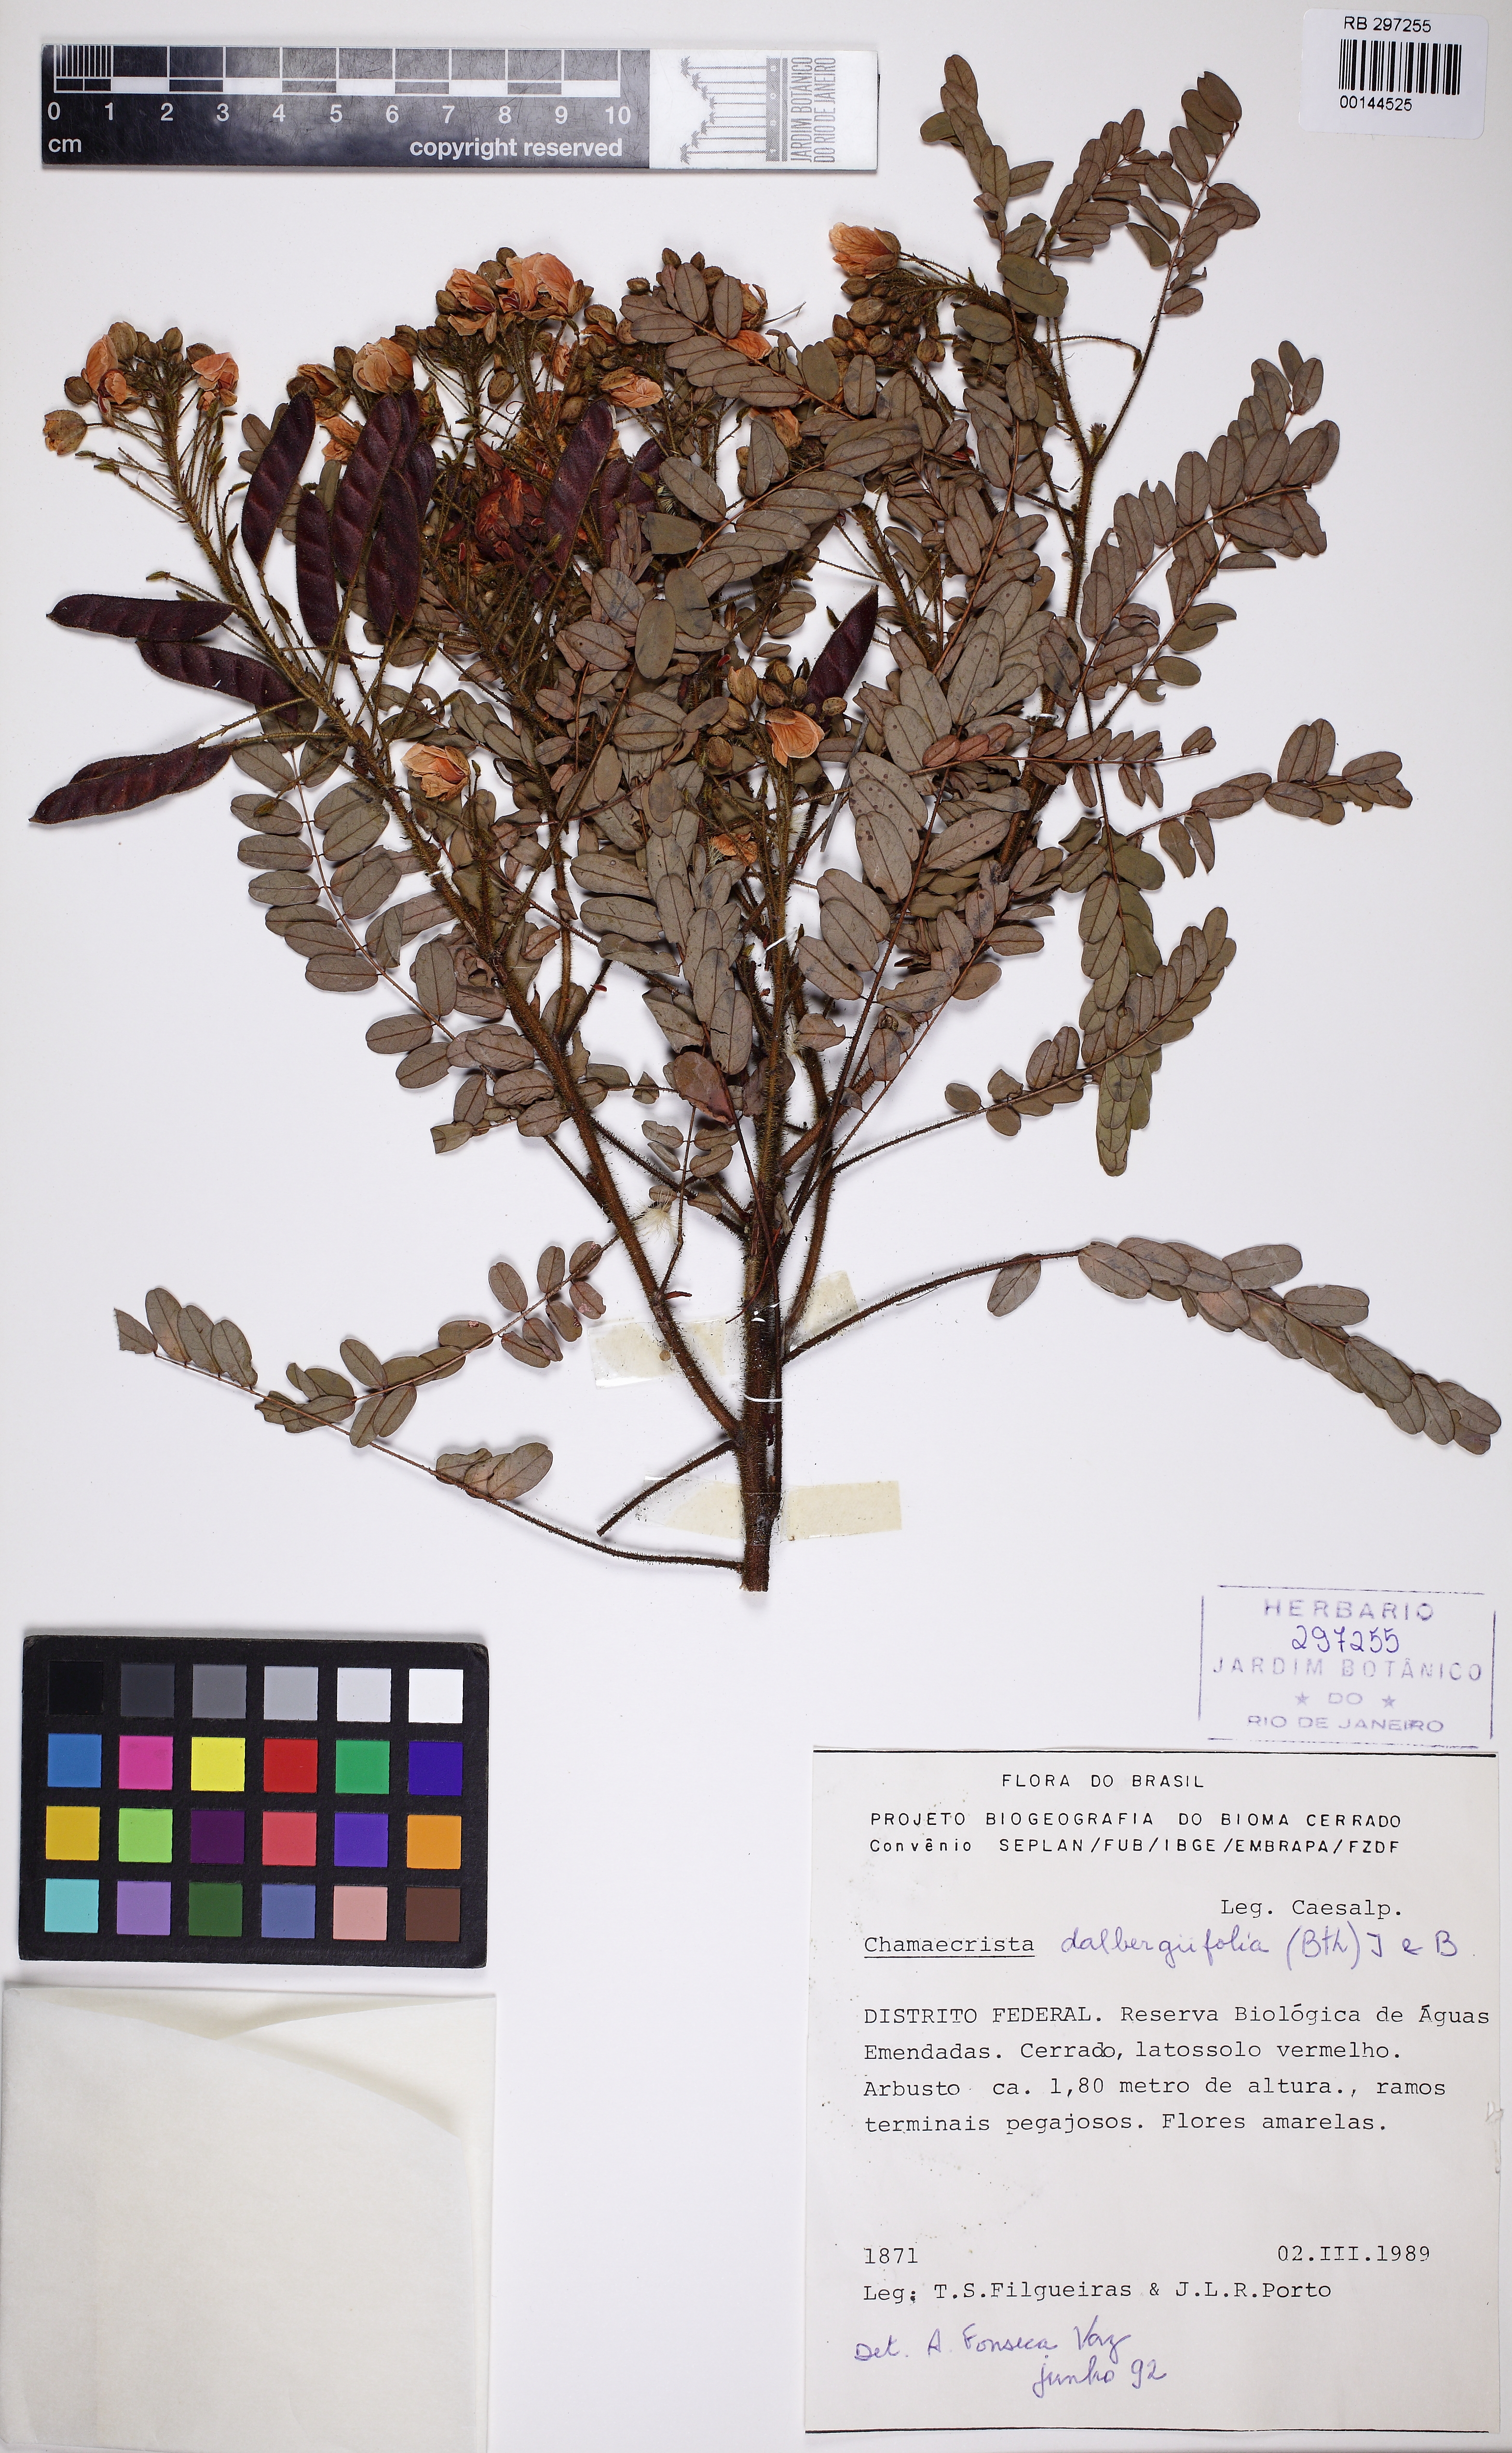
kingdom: Plantae
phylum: Tracheophyta
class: Magnoliopsida
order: Fabales
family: Fabaceae
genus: Chamaecrista
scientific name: Chamaecrista dalbergiifolia
